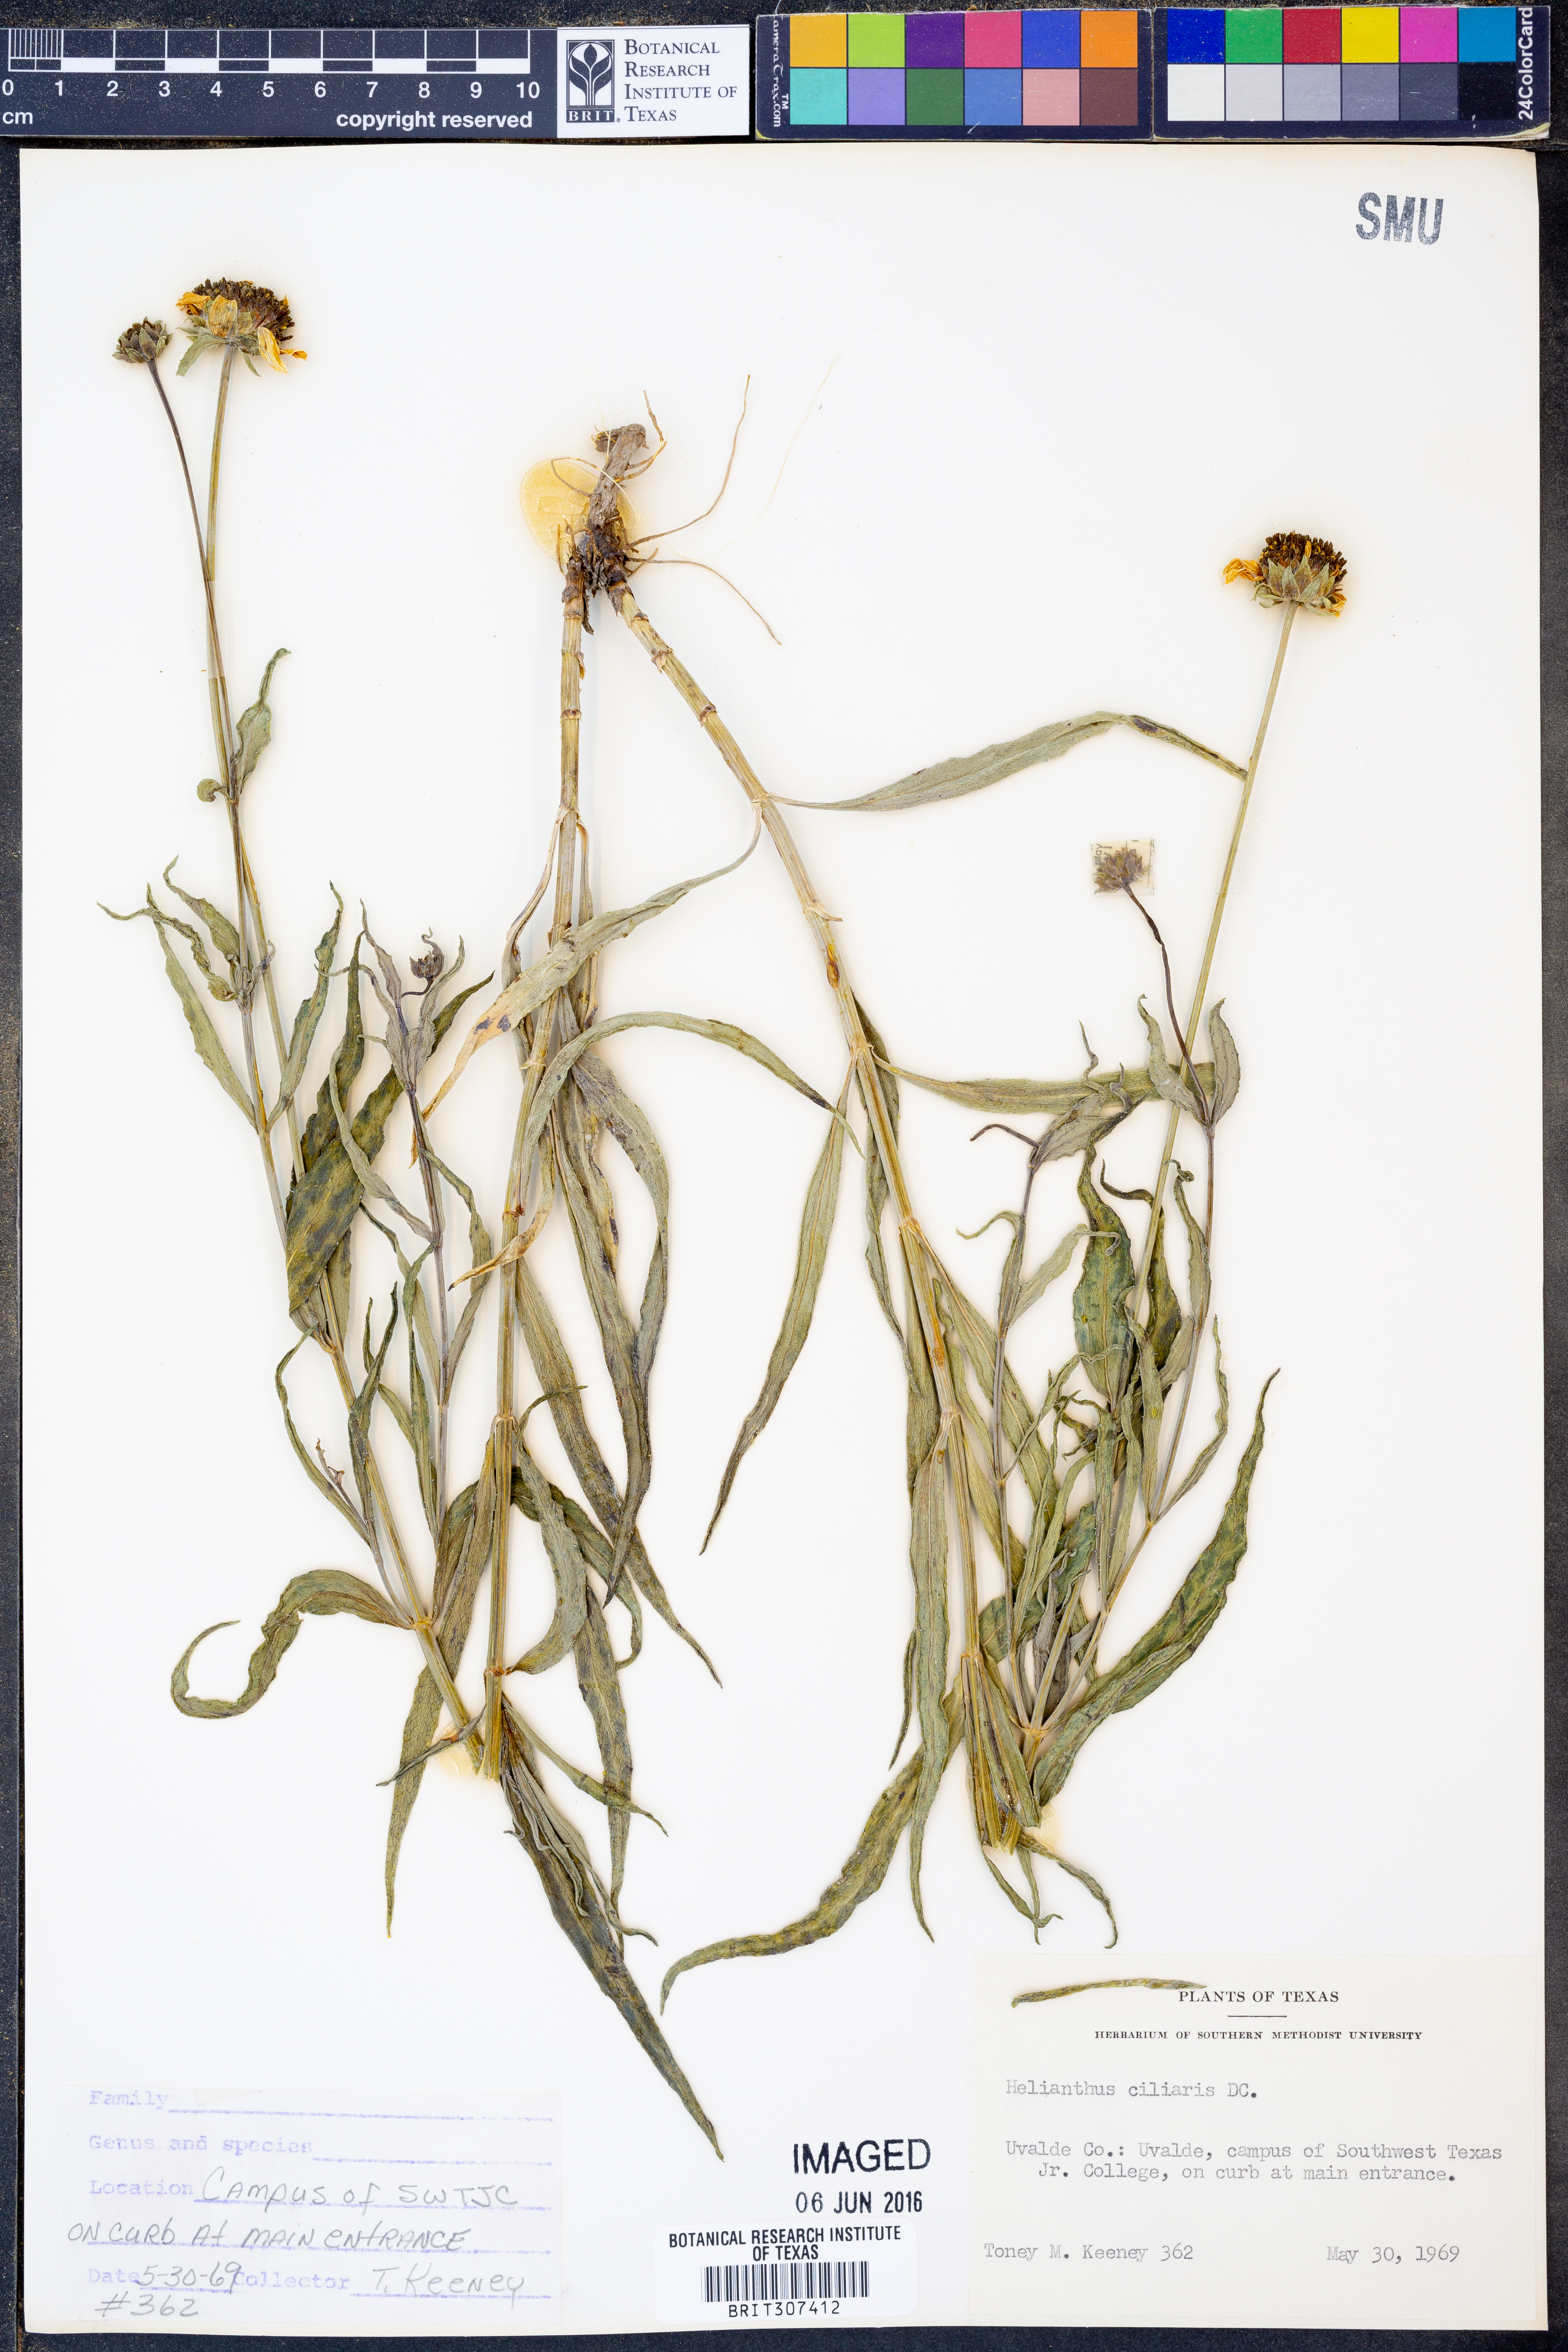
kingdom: Plantae
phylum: Tracheophyta
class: Magnoliopsida
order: Asterales
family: Asteraceae
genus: Helianthus
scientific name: Helianthus ciliaris
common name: Texas blueweed
